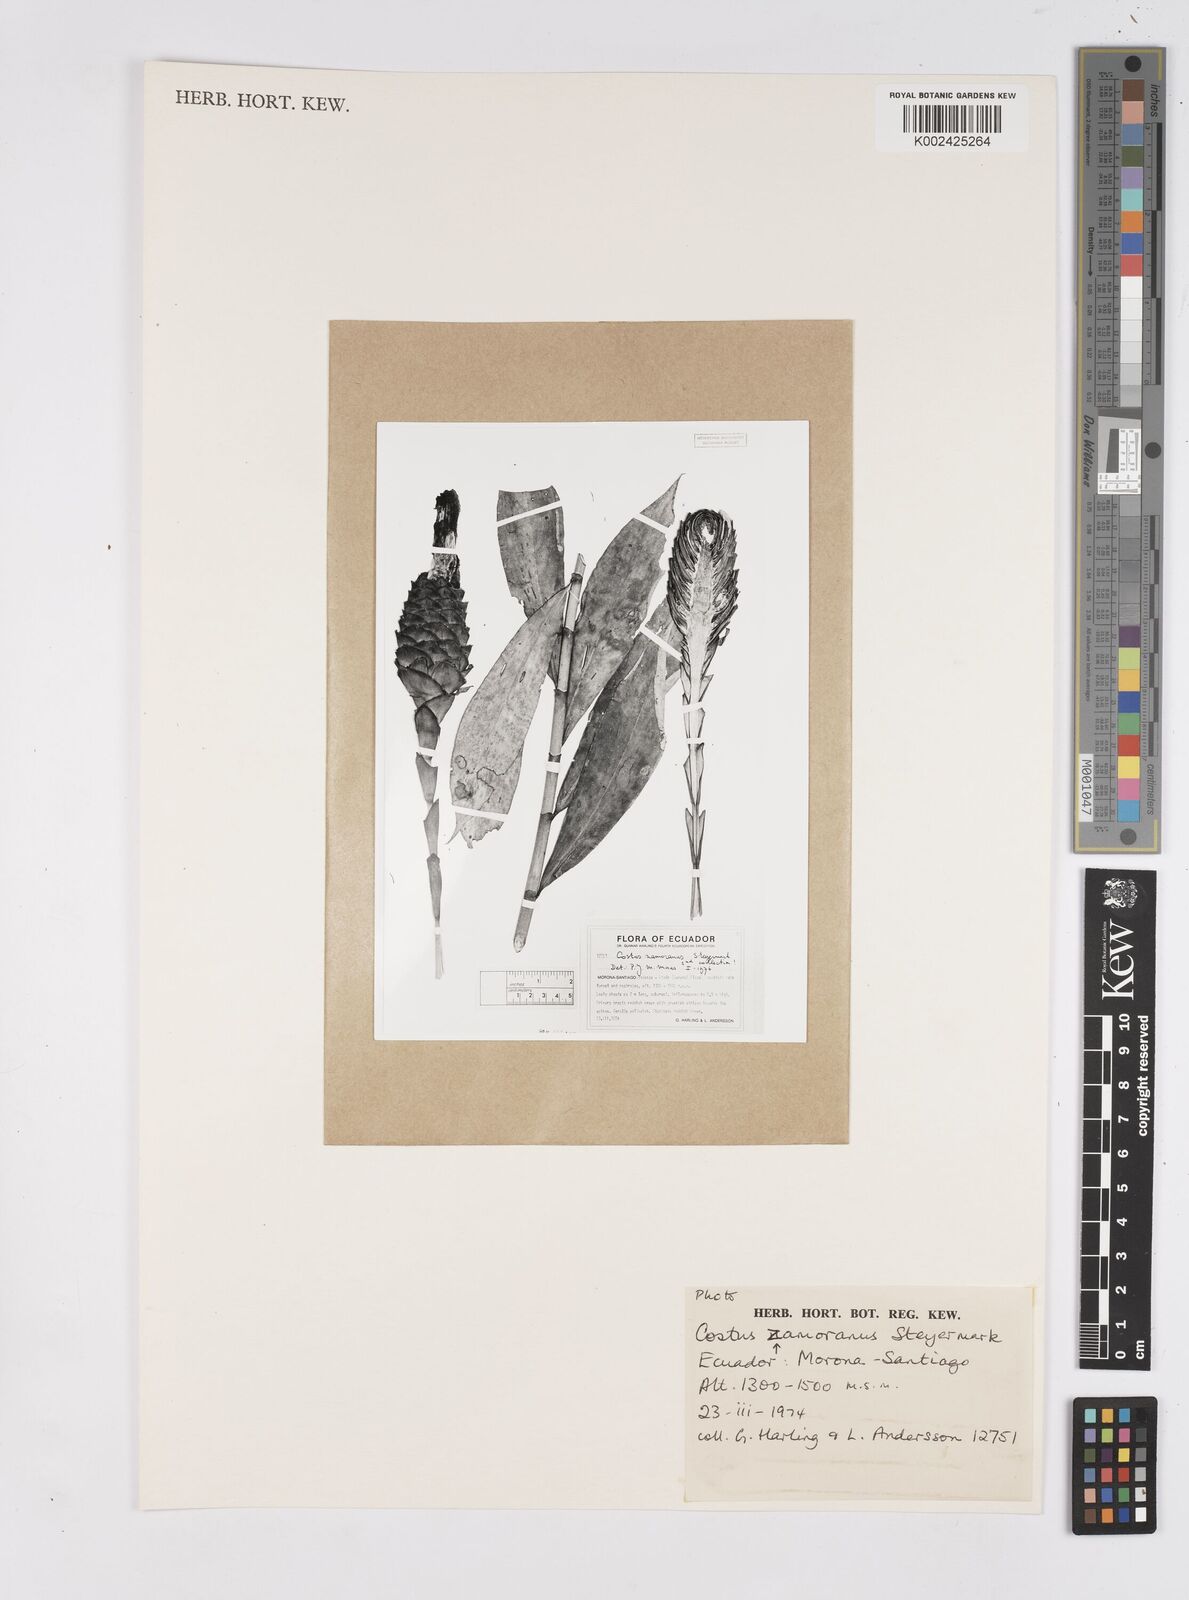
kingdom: Plantae
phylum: Tracheophyta
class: Liliopsida
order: Zingiberales
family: Costaceae
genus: Costus
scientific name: Costus zamoranus
